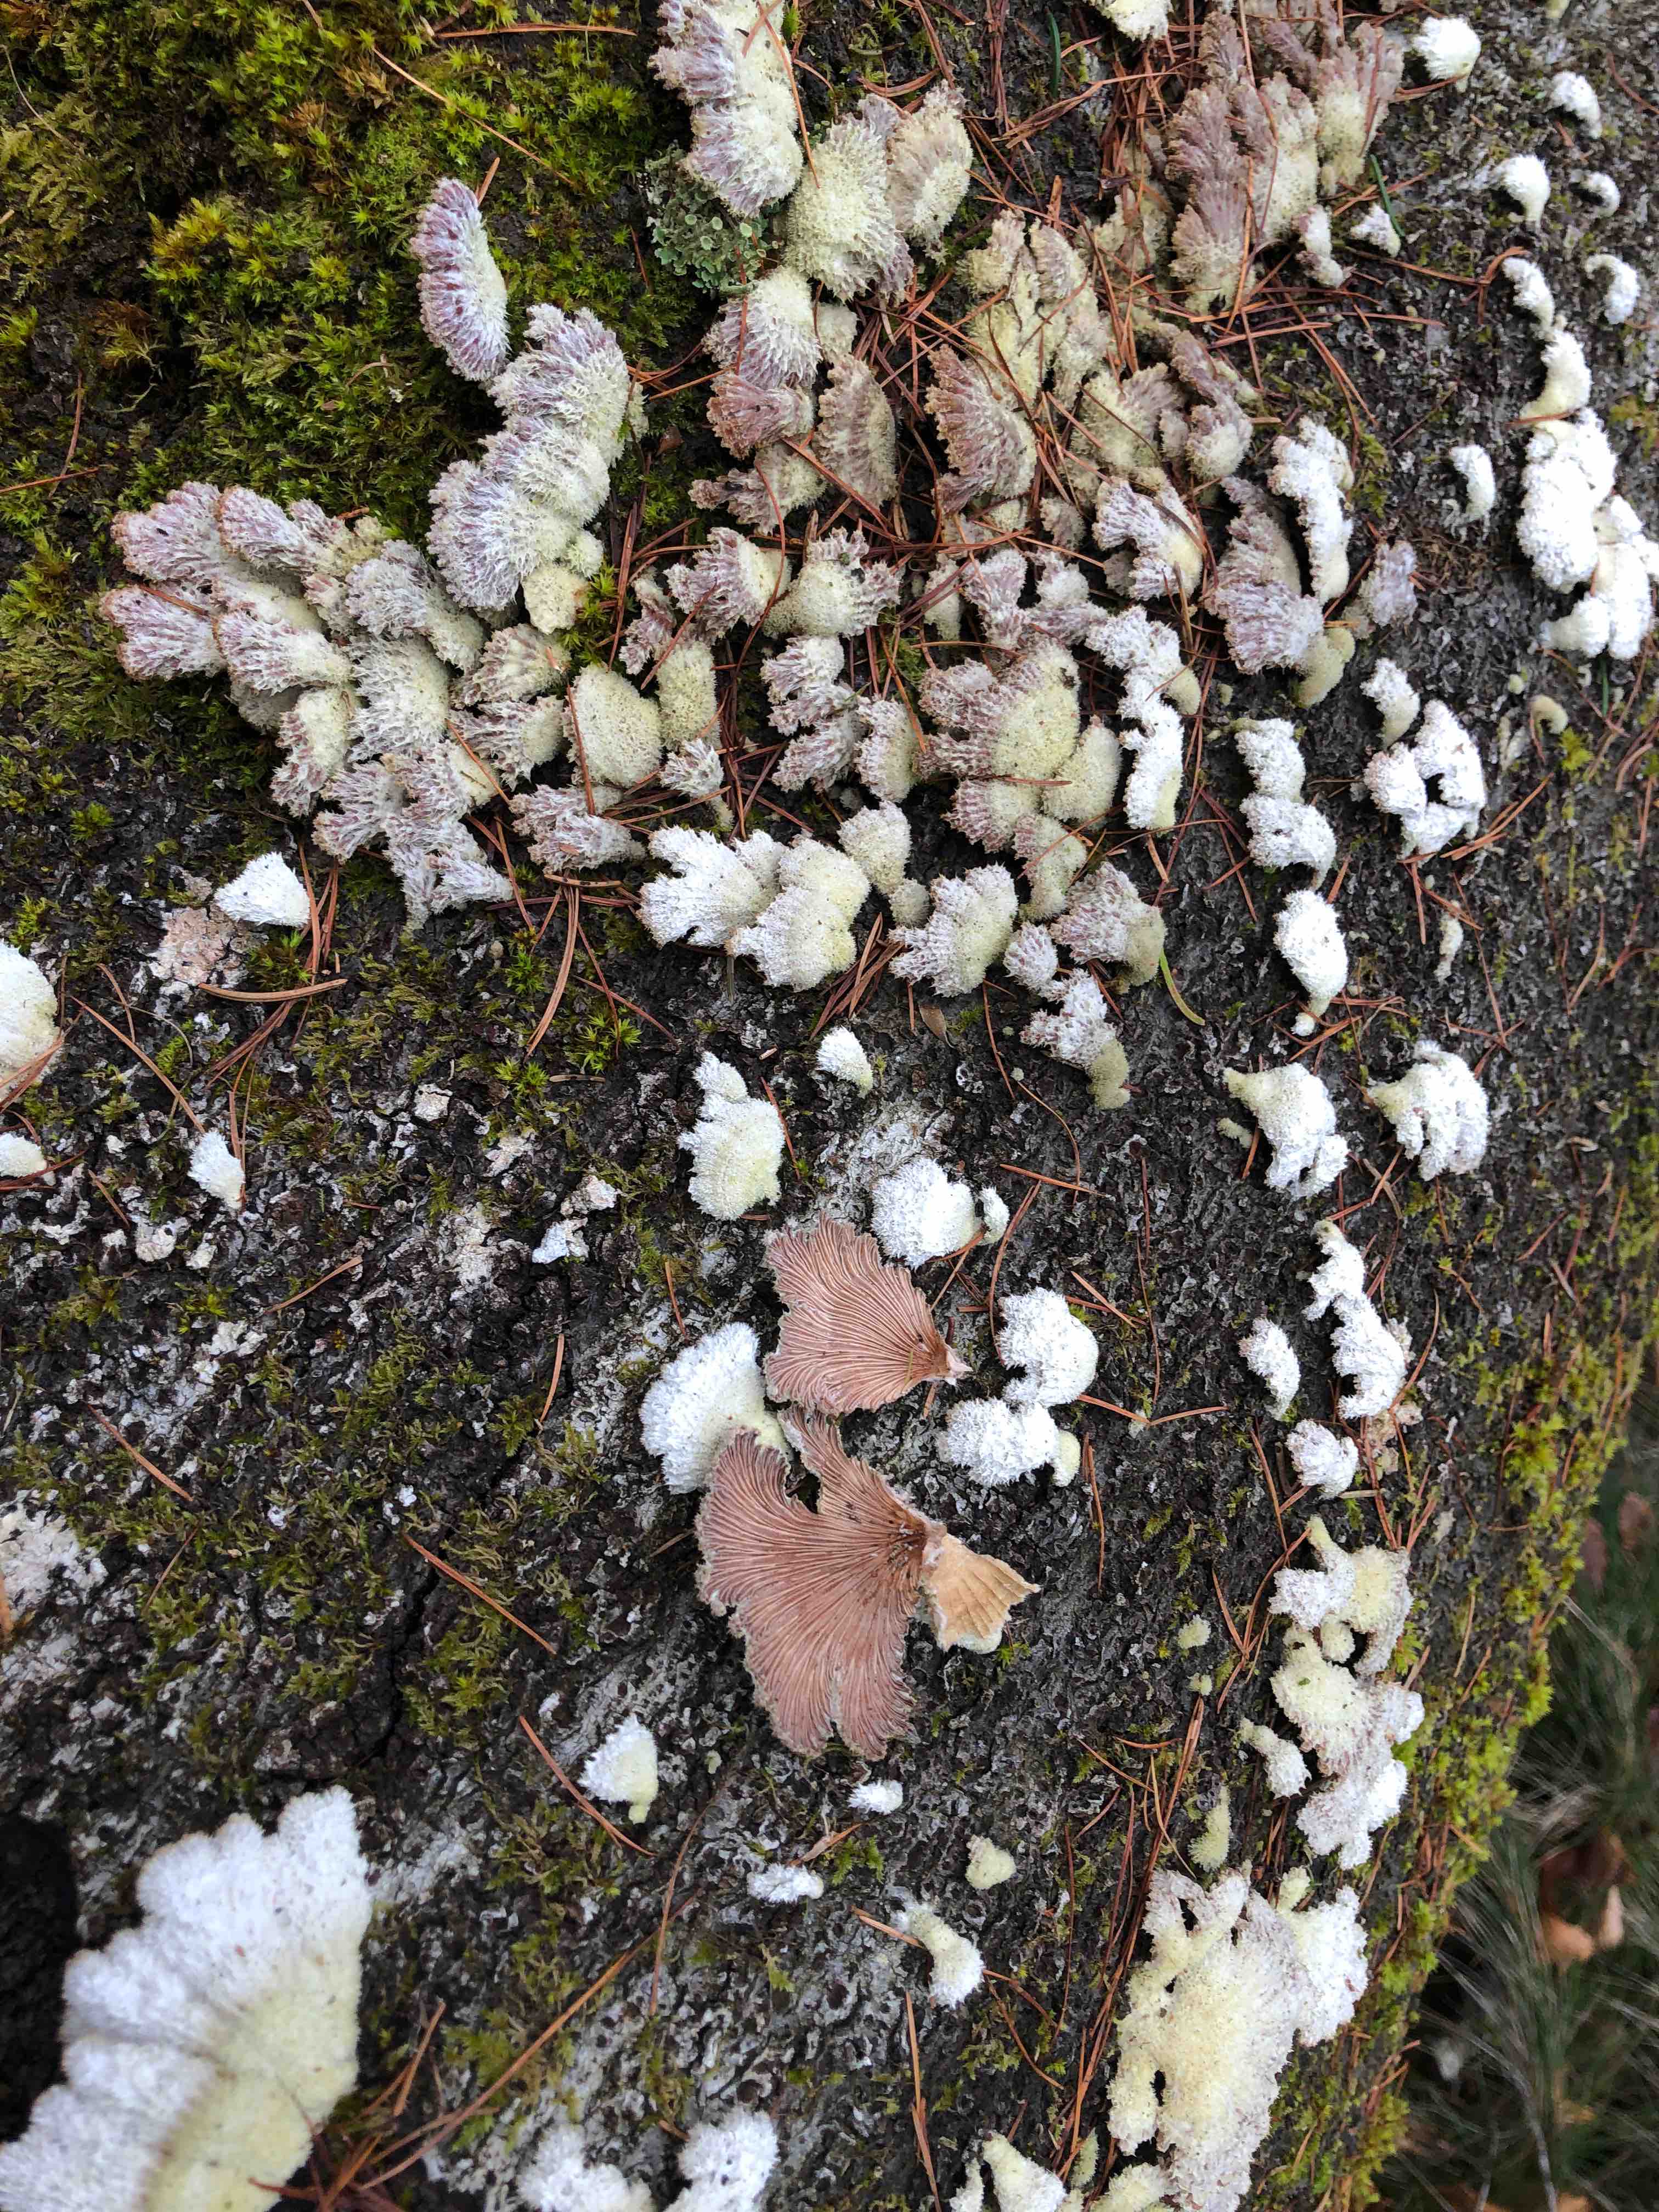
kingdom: Fungi
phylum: Basidiomycota
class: Agaricomycetes
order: Agaricales
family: Schizophyllaceae
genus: Schizophyllum
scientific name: Schizophyllum commune
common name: kløvblad
